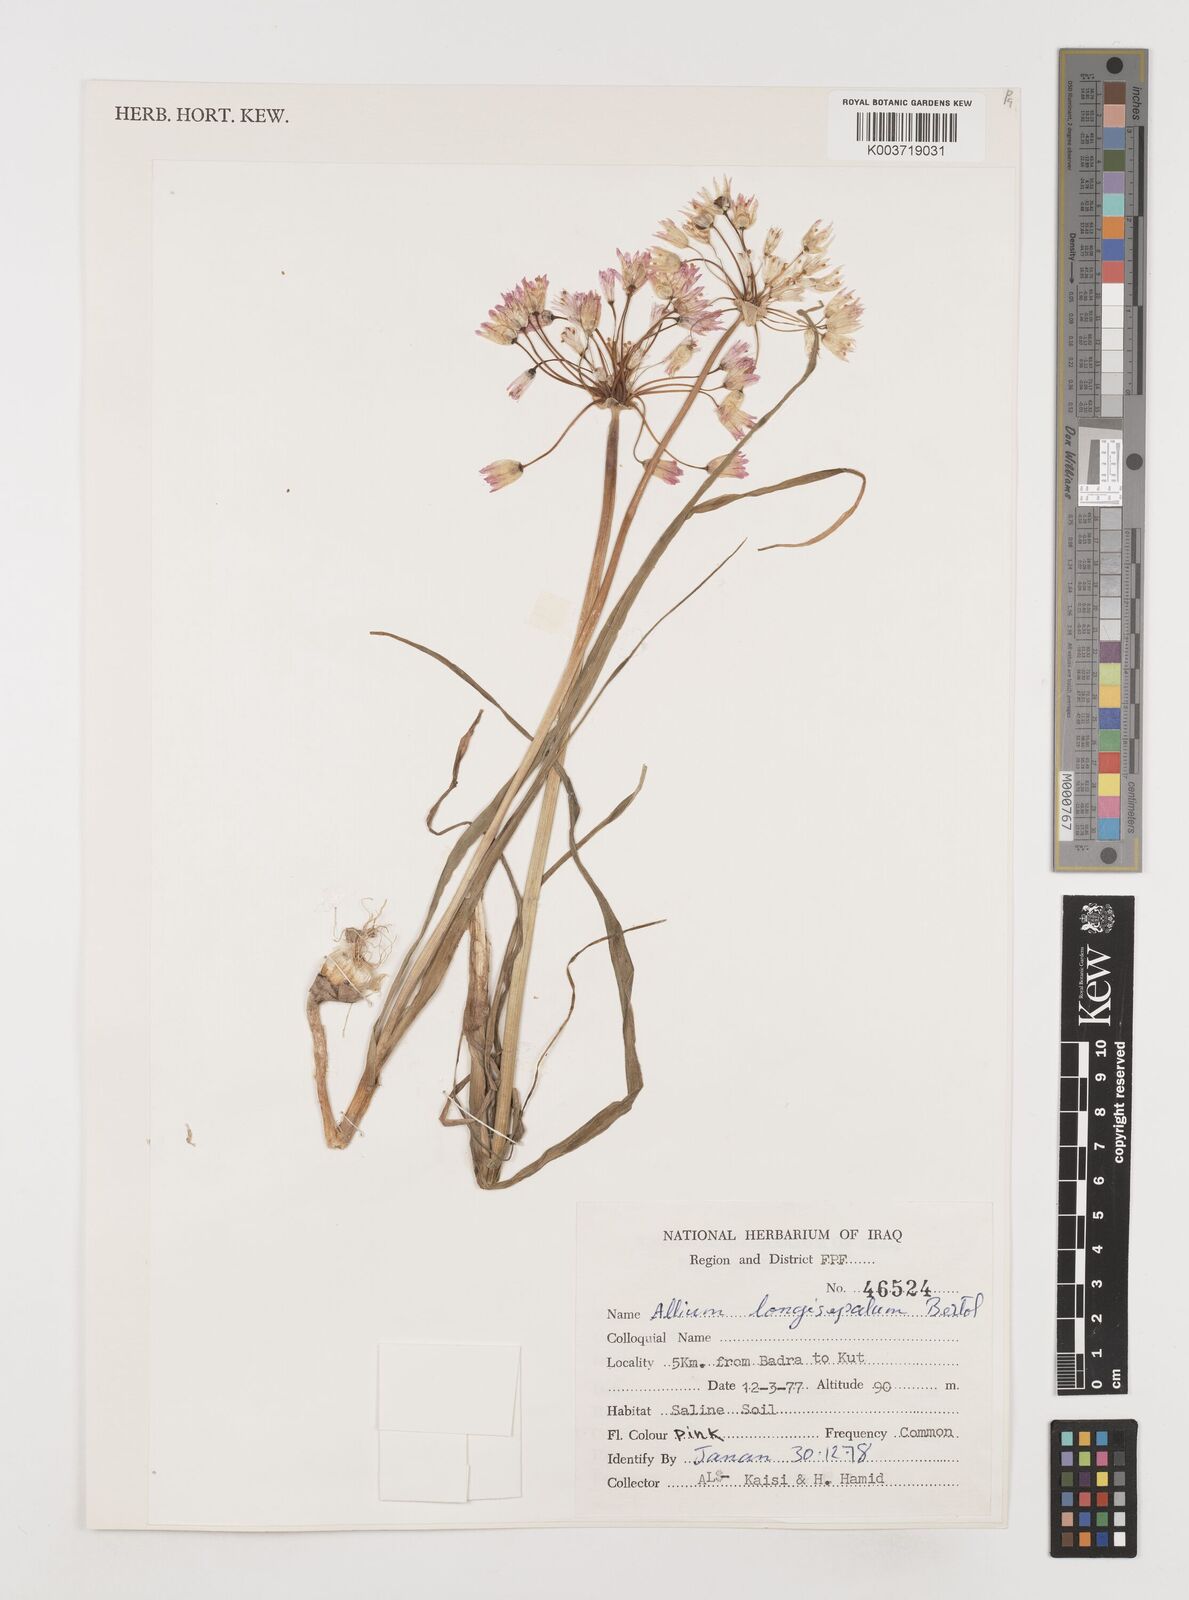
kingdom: Plantae
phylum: Tracheophyta
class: Liliopsida
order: Asparagales
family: Amaryllidaceae
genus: Allium
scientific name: Allium longisepalum
